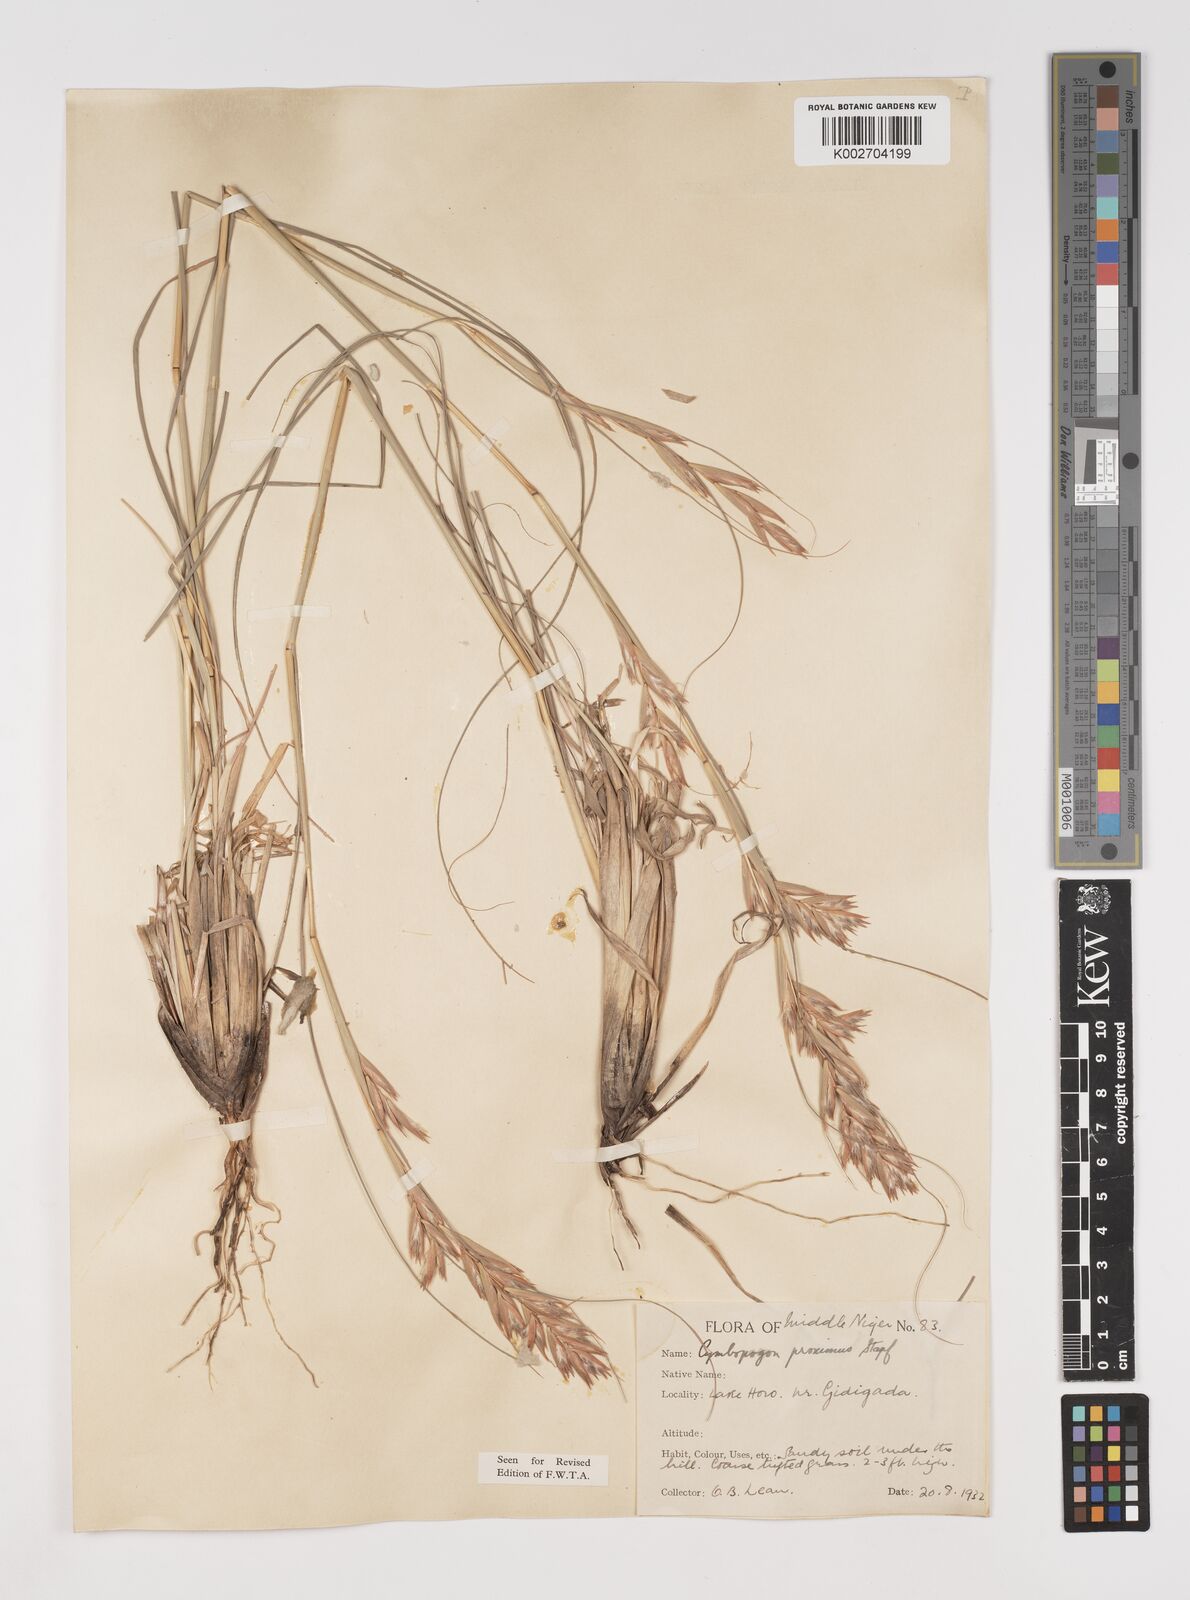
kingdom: Plantae
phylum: Tracheophyta
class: Liliopsida
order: Poales
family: Poaceae
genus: Cymbopogon
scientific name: Cymbopogon schoenanthus
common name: Geranium grass
